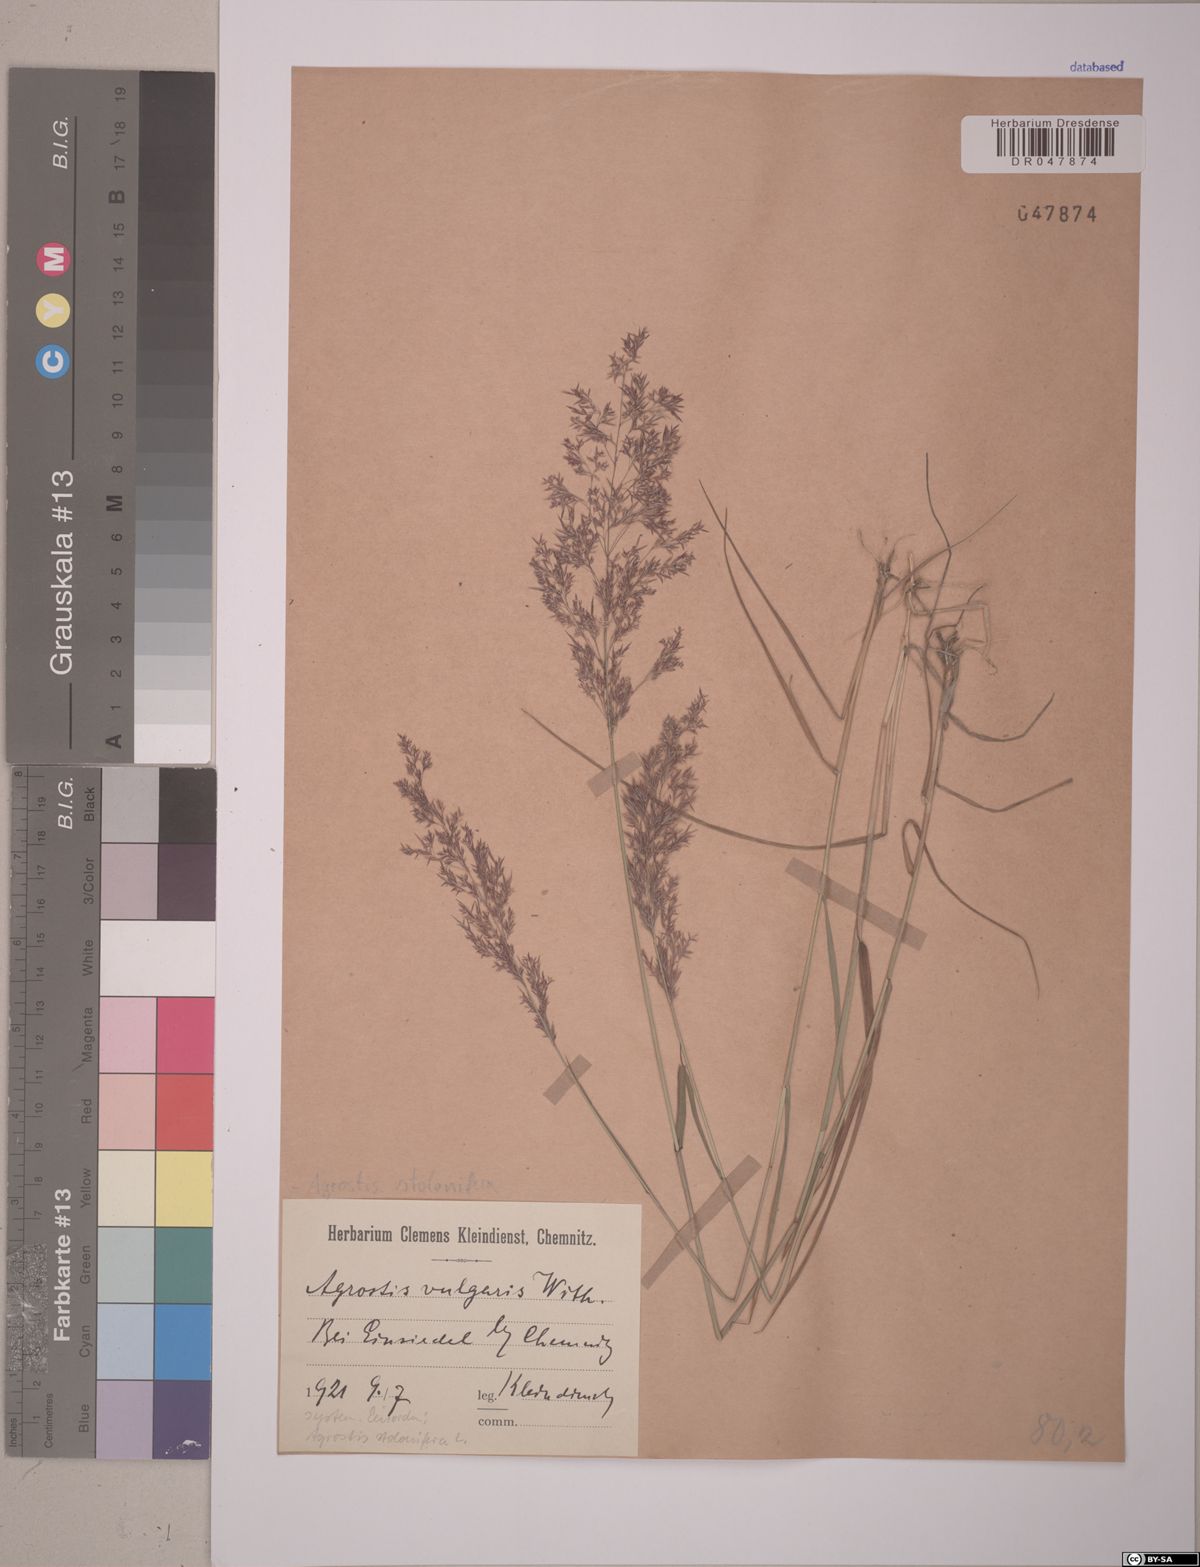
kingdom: Plantae
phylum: Tracheophyta
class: Liliopsida
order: Poales
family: Poaceae
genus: Agrostis
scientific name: Agrostis stolonifera
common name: Creeping bentgrass
